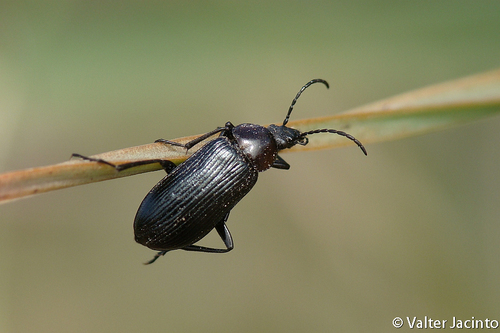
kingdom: Animalia
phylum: Arthropoda
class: Insecta
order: Coleoptera
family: Tenebrionidae
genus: Heliotaurus
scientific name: Heliotaurus sanguinicollis
